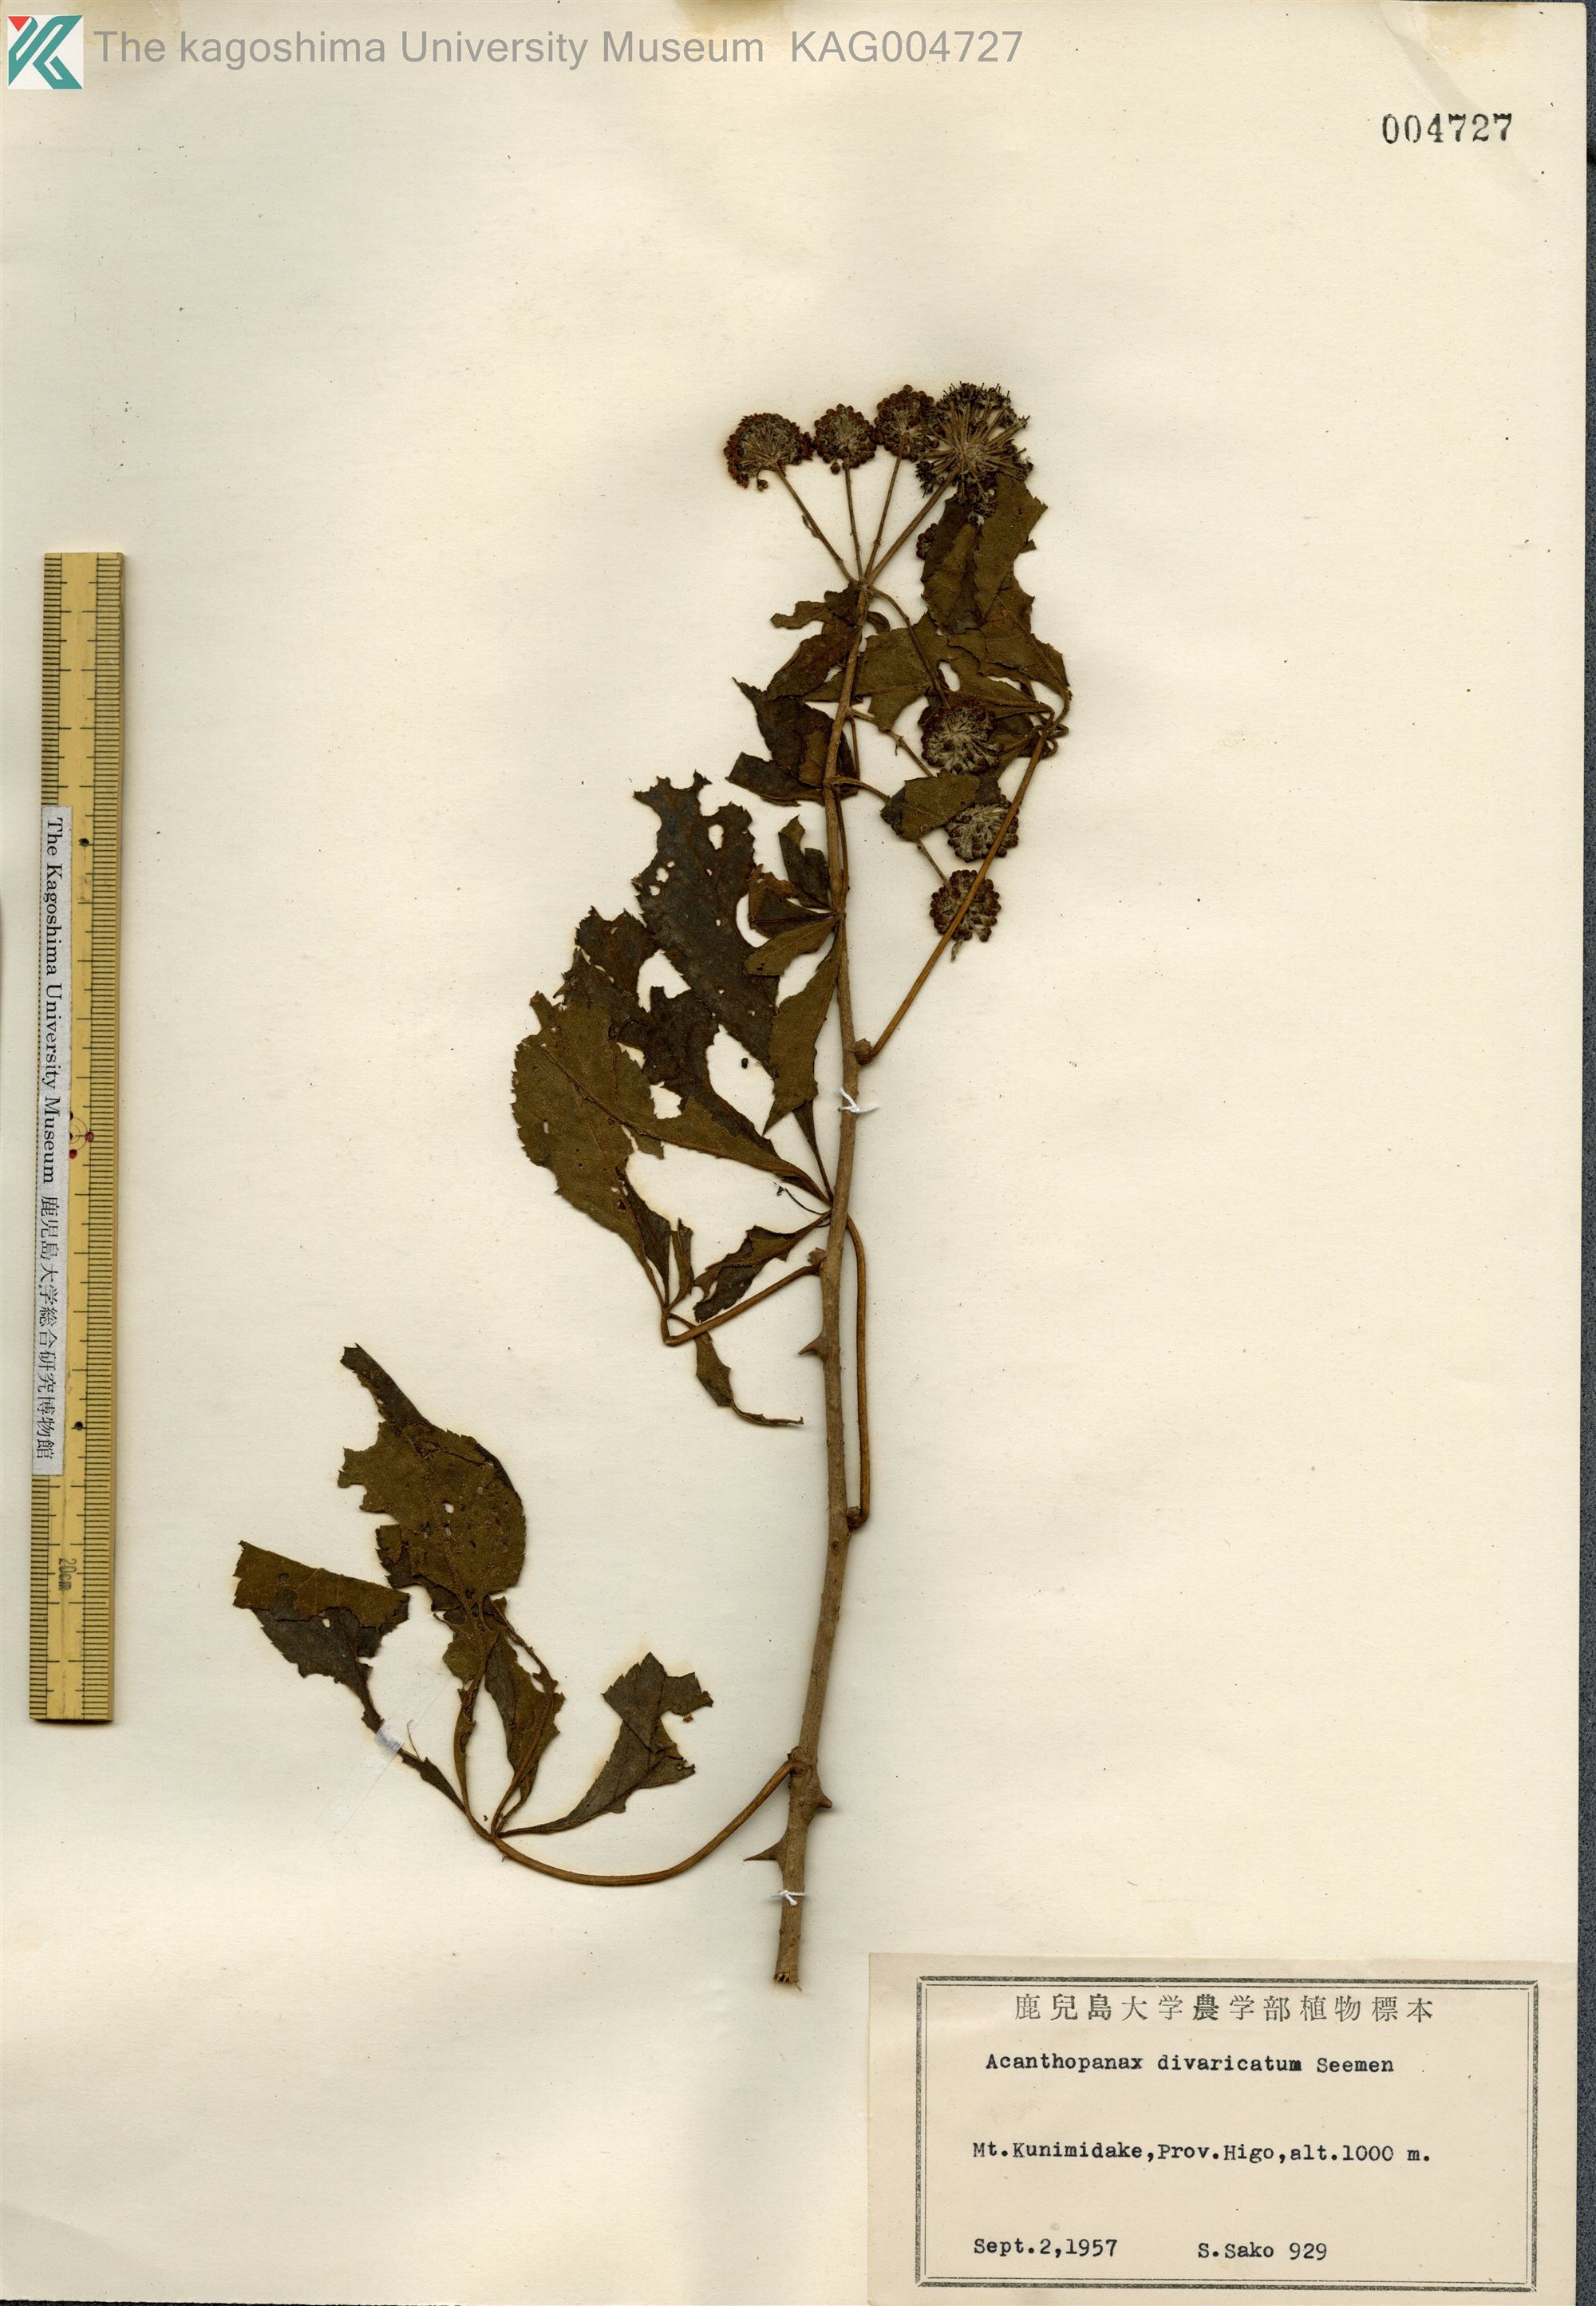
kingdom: Plantae
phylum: Tracheophyta
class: Magnoliopsida
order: Apiales
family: Araliaceae
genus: Eleutherococcus
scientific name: Eleutherococcus divaricatus
